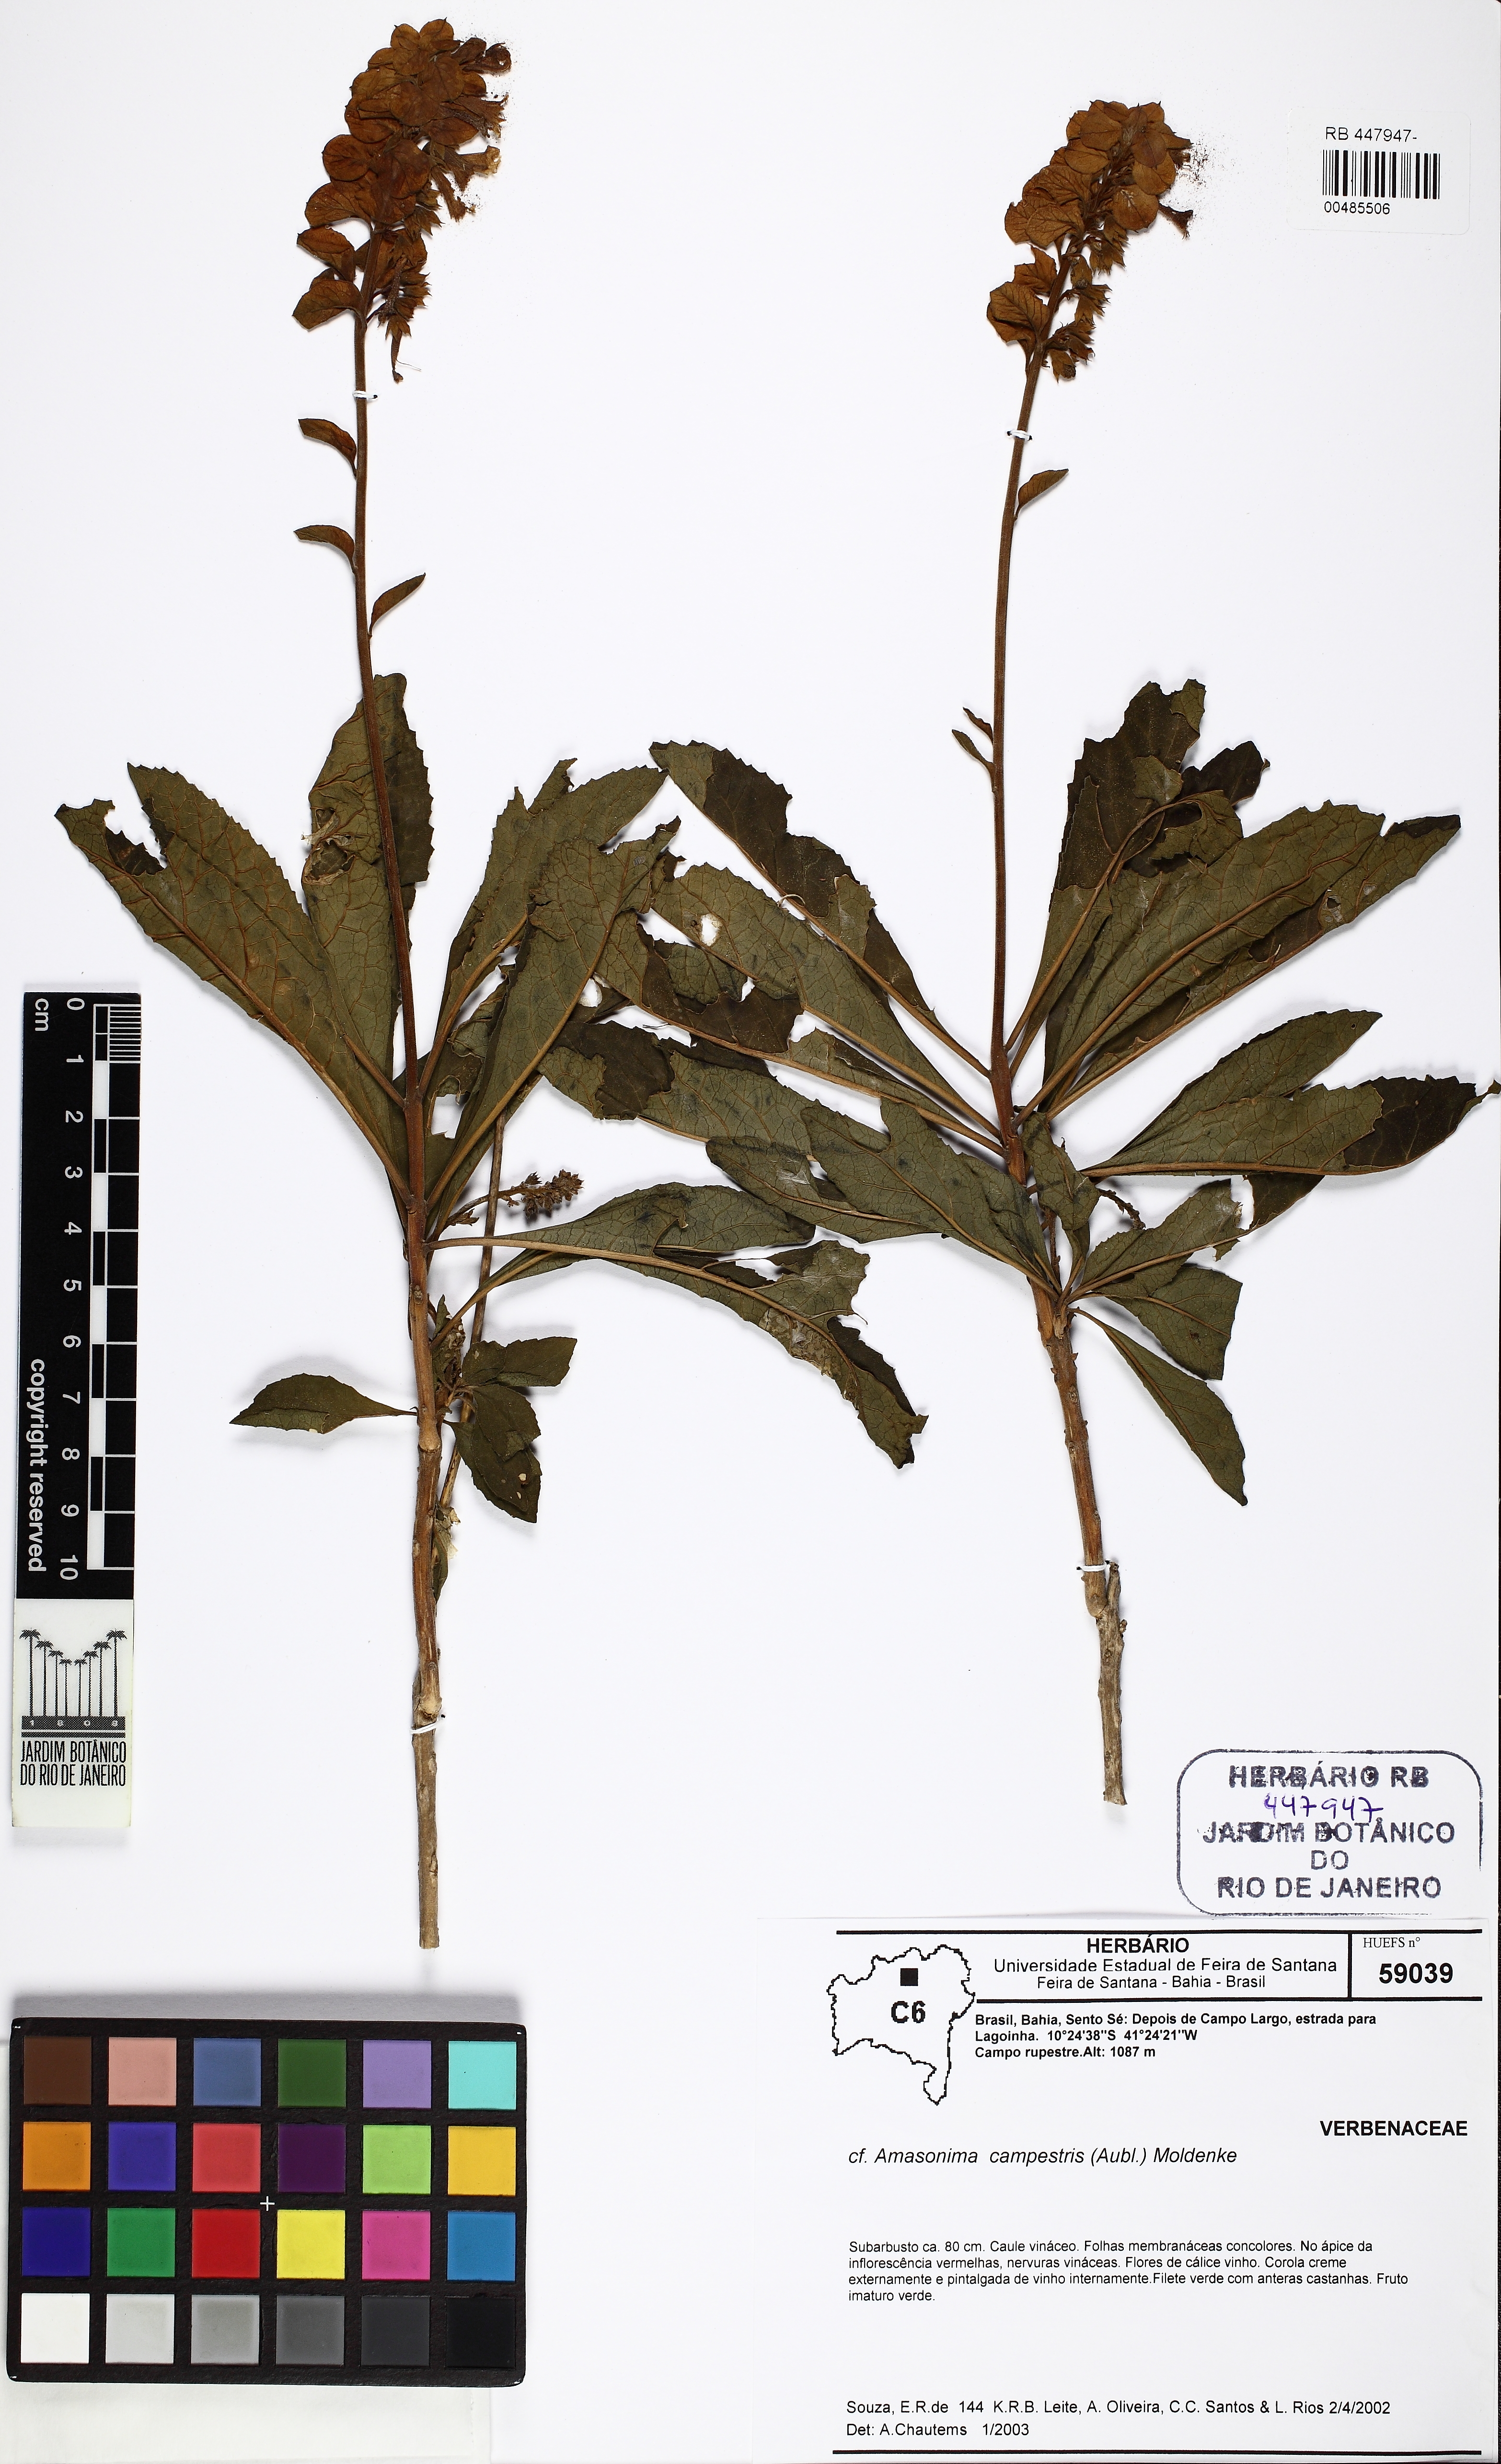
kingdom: Plantae
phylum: Tracheophyta
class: Magnoliopsida
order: Lamiales
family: Lamiaceae
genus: Amasonia
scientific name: Amasonia campestris
